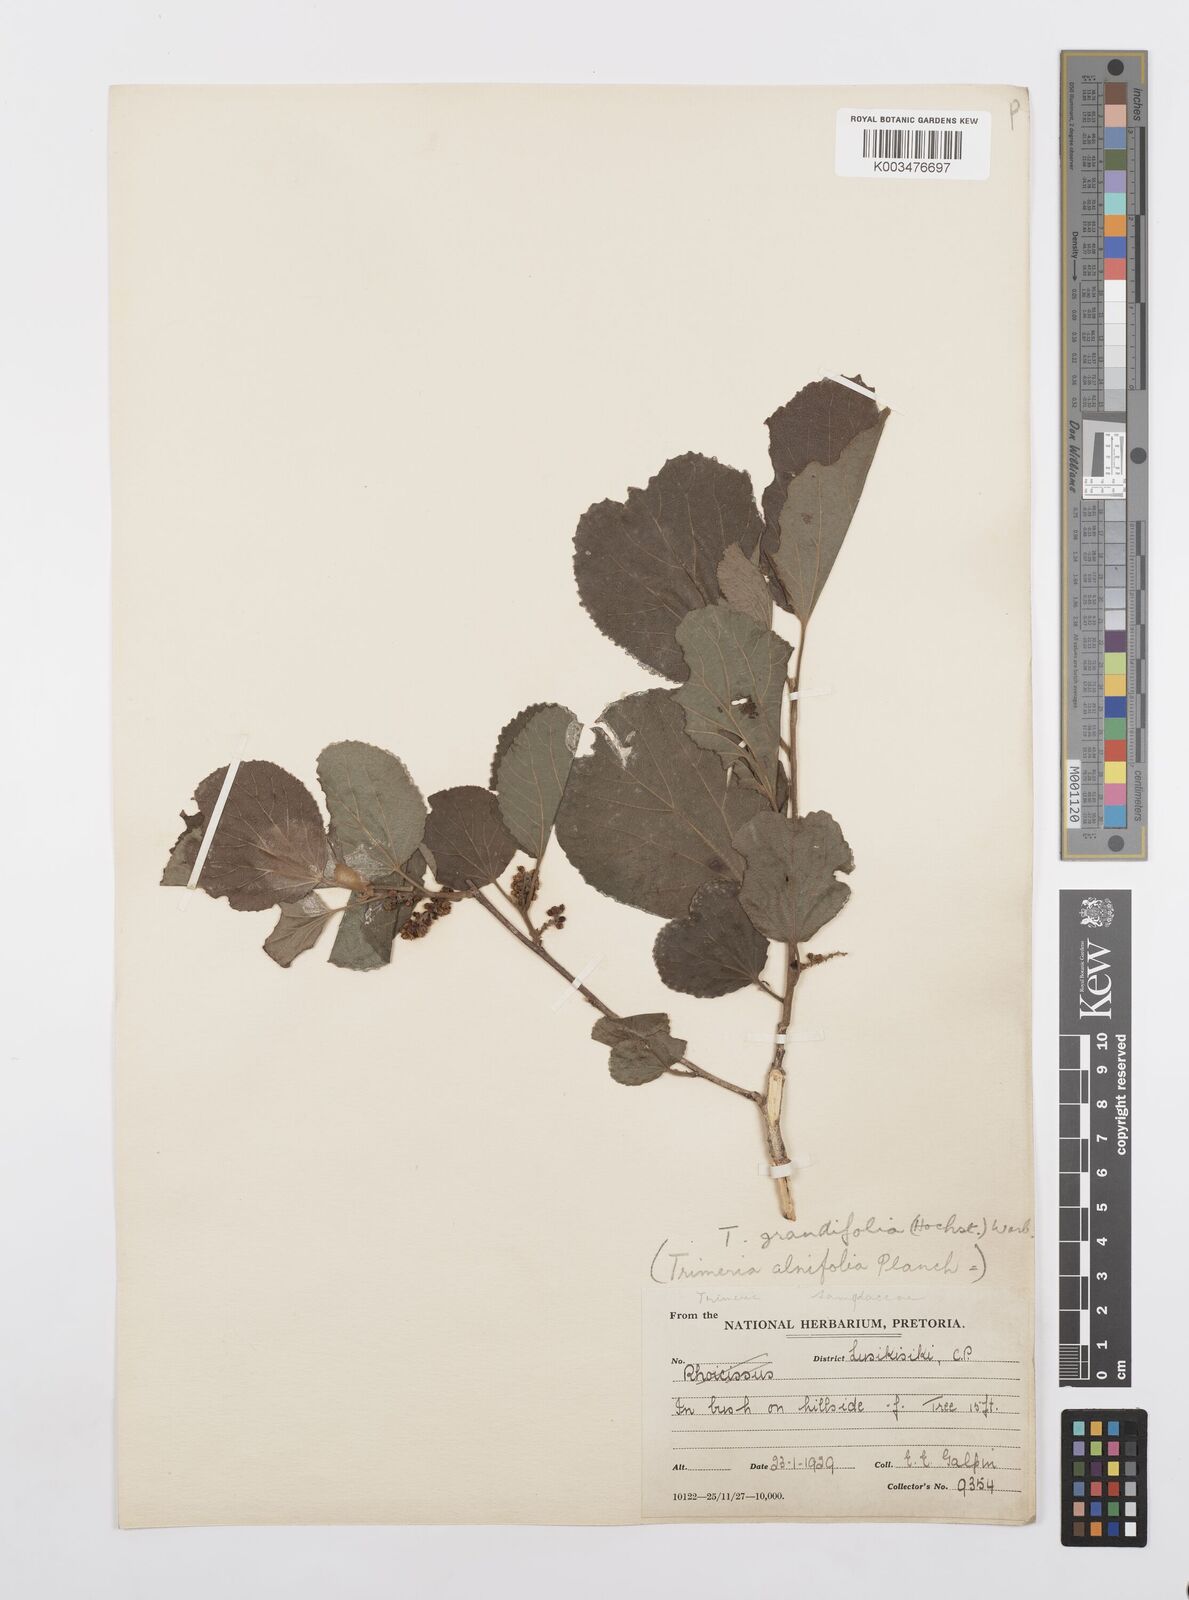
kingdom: Plantae
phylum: Tracheophyta
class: Magnoliopsida
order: Malpighiales
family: Salicaceae
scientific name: Salicaceae
